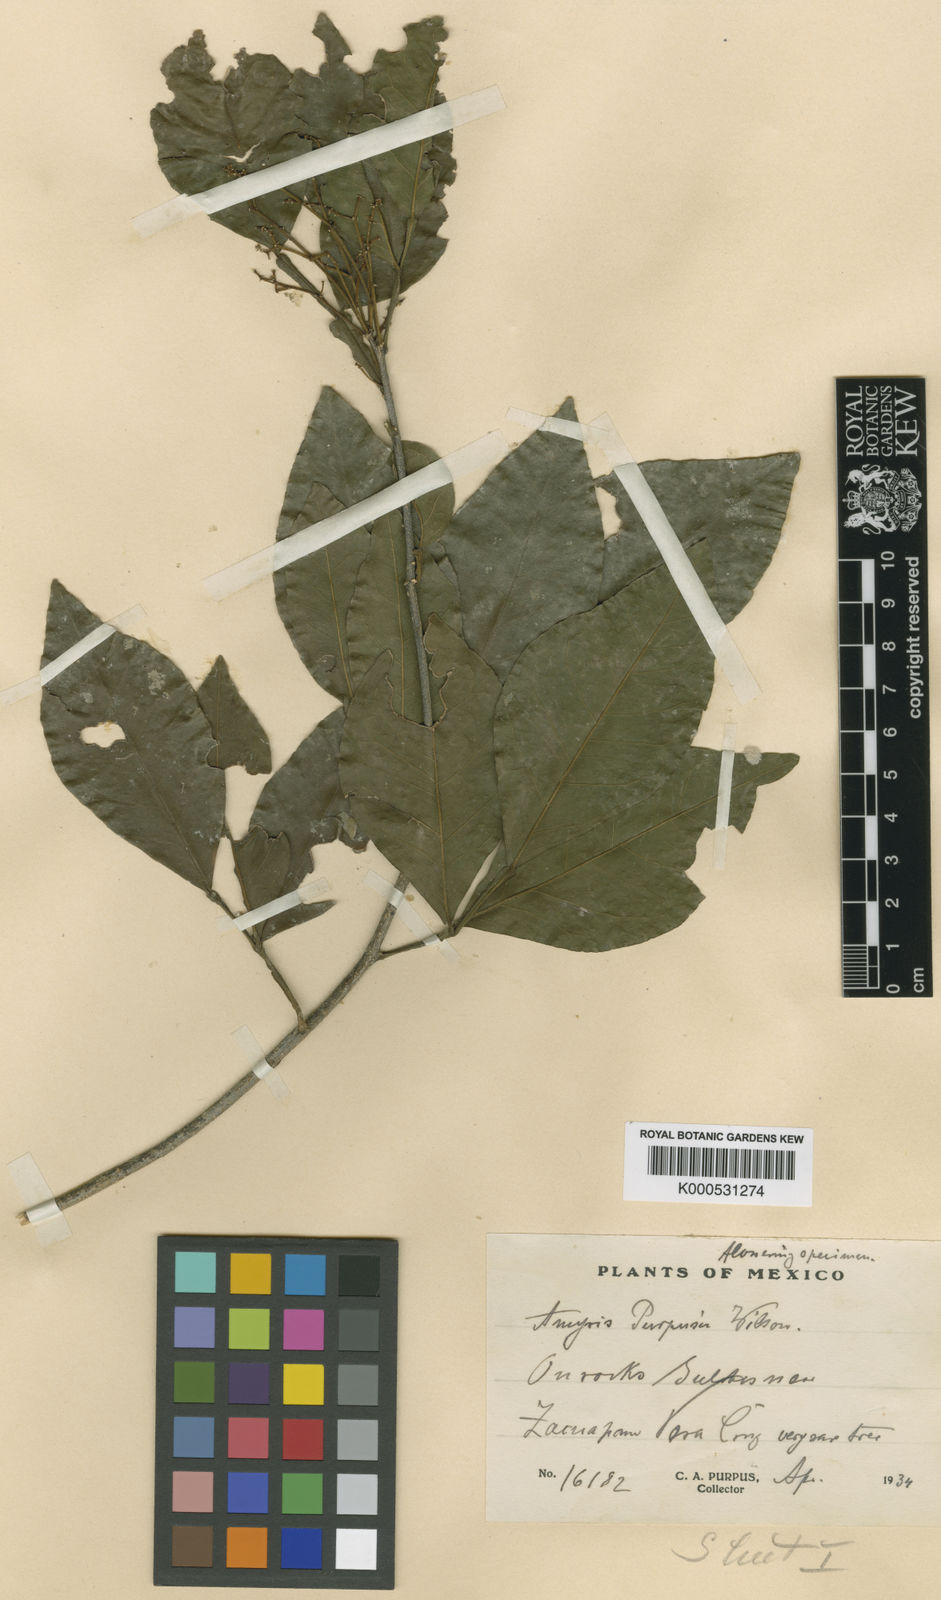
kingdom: Plantae
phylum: Tracheophyta
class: Magnoliopsida
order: Sapindales
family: Rutaceae
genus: Amyris
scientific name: Amyris purpusii
